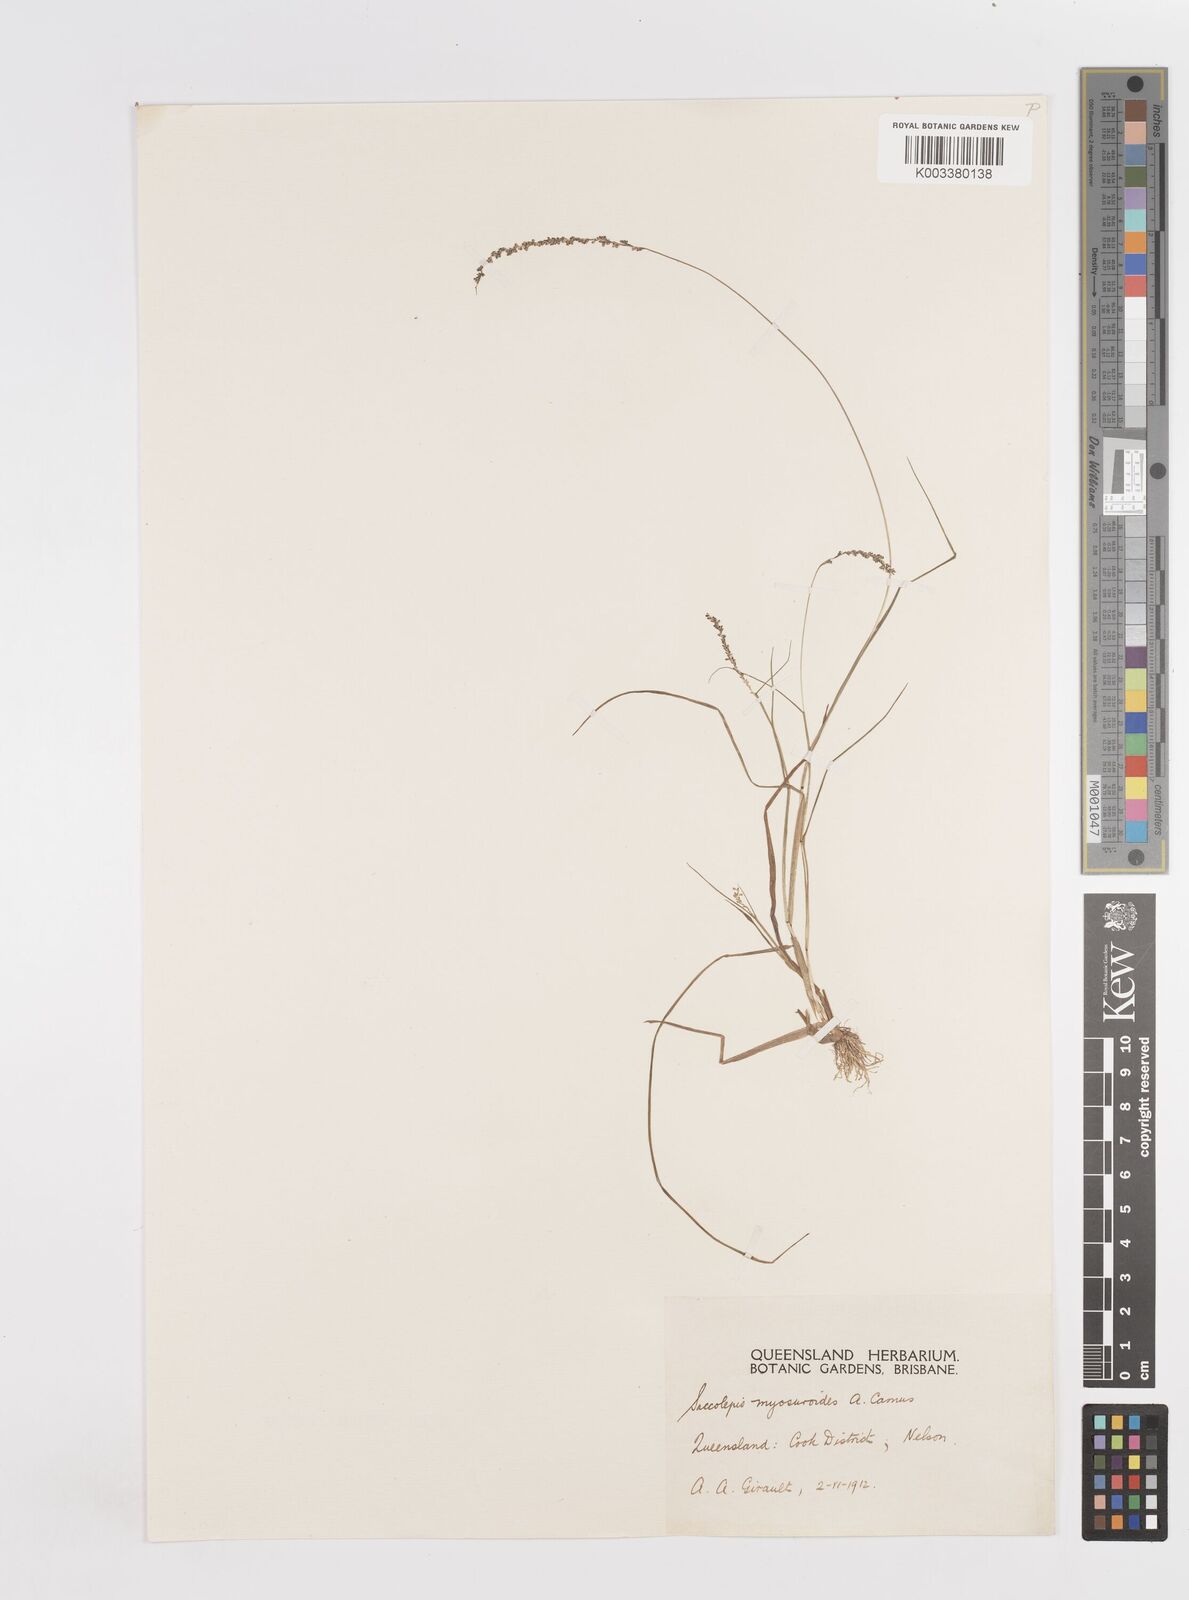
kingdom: Plantae
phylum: Tracheophyta
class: Liliopsida
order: Poales
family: Poaceae
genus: Sacciolepis
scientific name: Sacciolepis myosuroides
